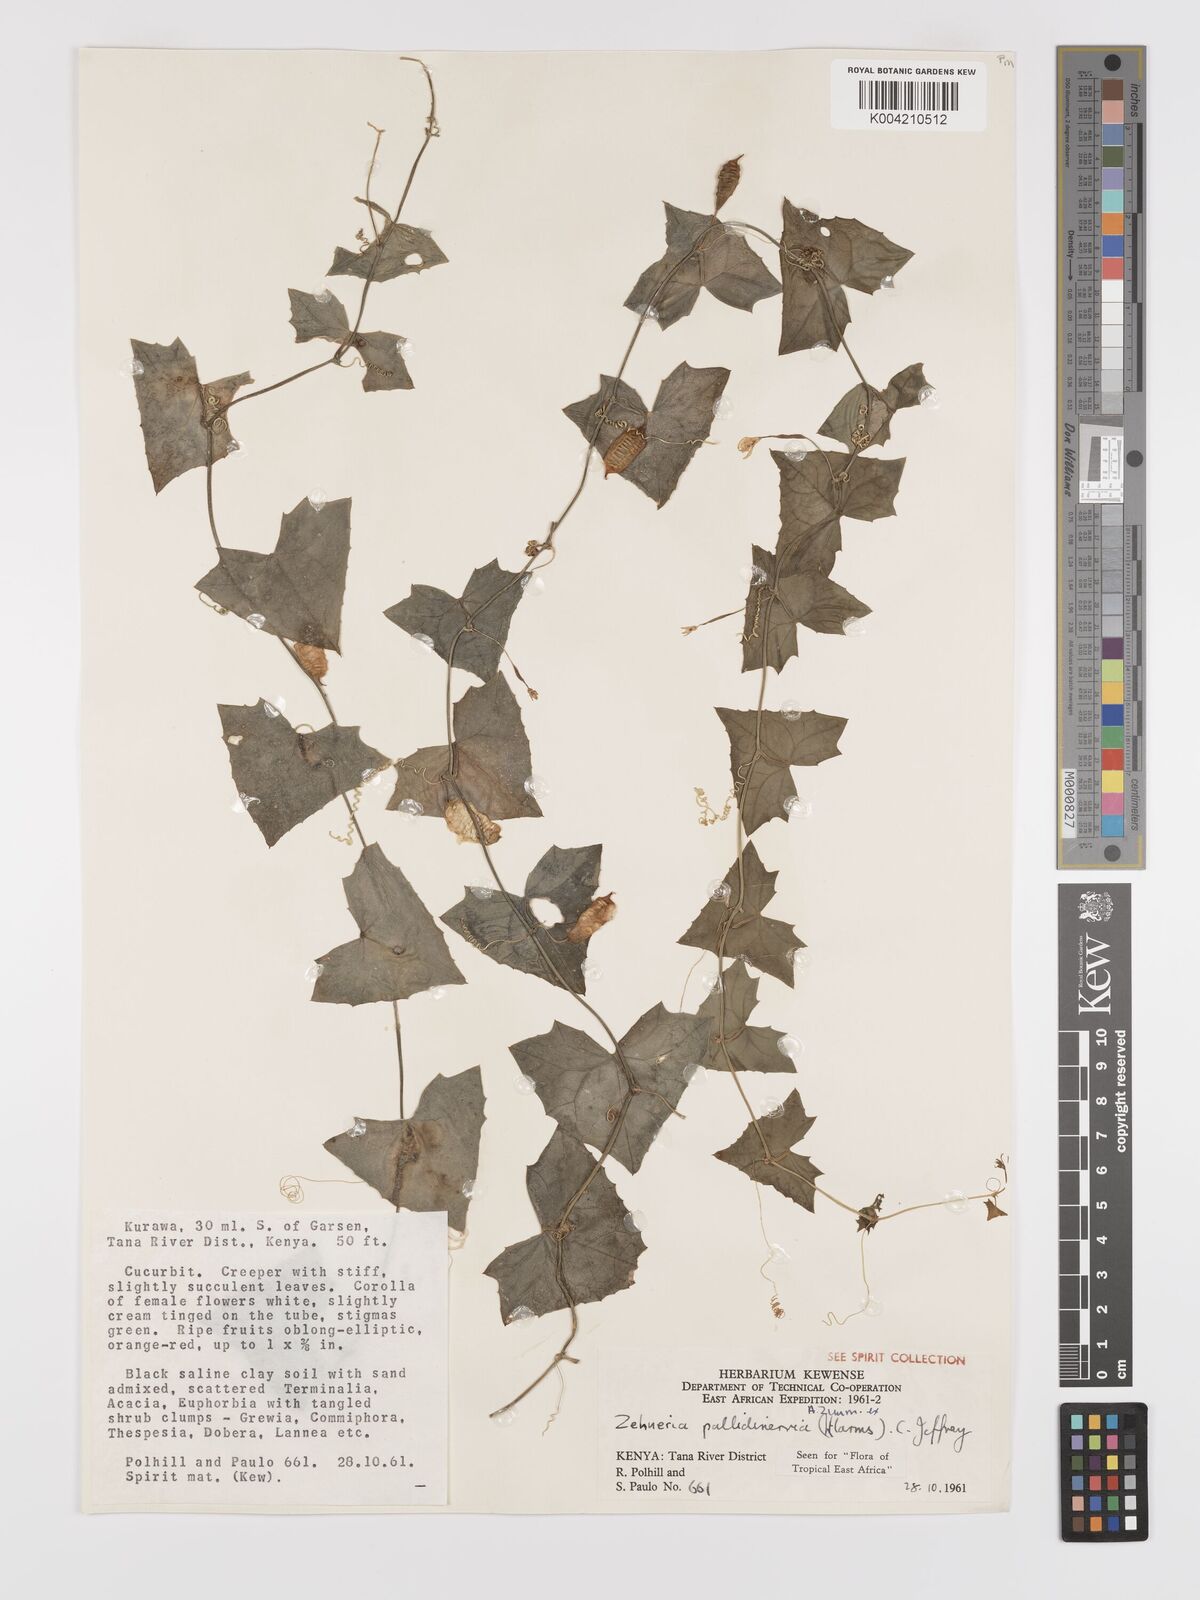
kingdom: Plantae
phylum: Tracheophyta
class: Magnoliopsida
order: Cucurbitales
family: Cucurbitaceae
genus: Zehneria
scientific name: Zehneria pallidinervia
